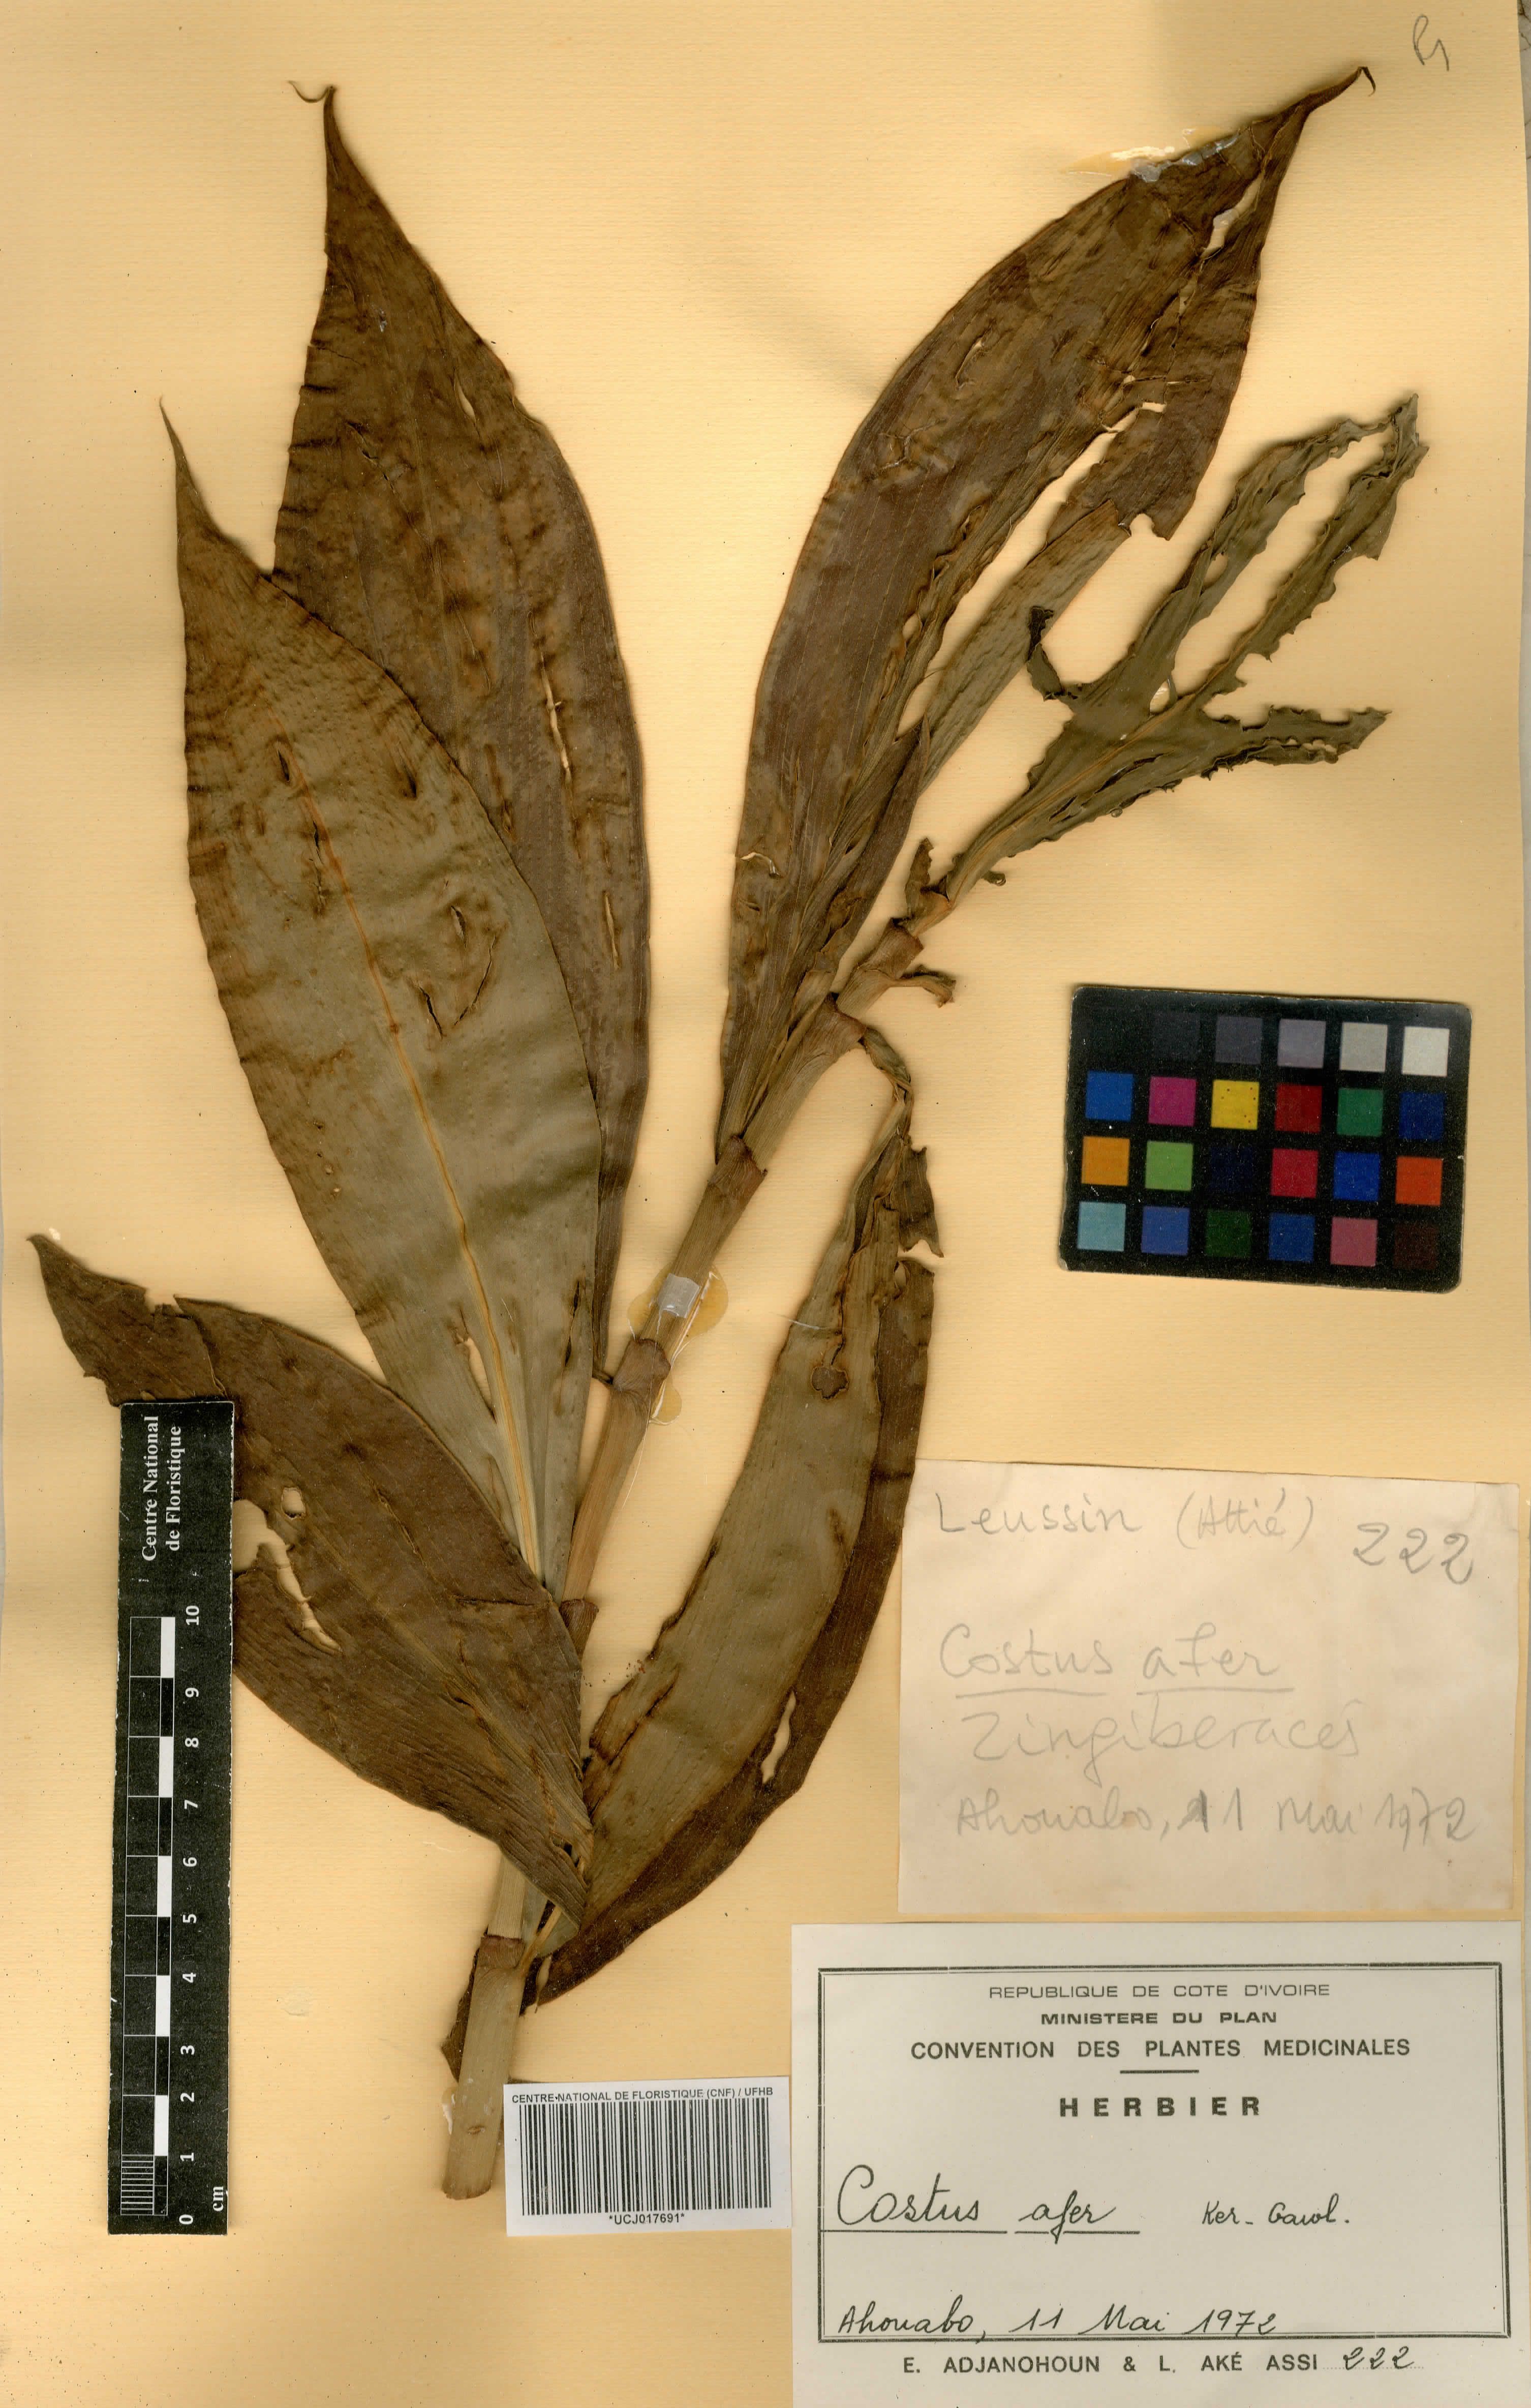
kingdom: Plantae
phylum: Tracheophyta
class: Liliopsida
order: Zingiberales
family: Costaceae
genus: Costus
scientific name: Costus afer
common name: Spiral-ginger
